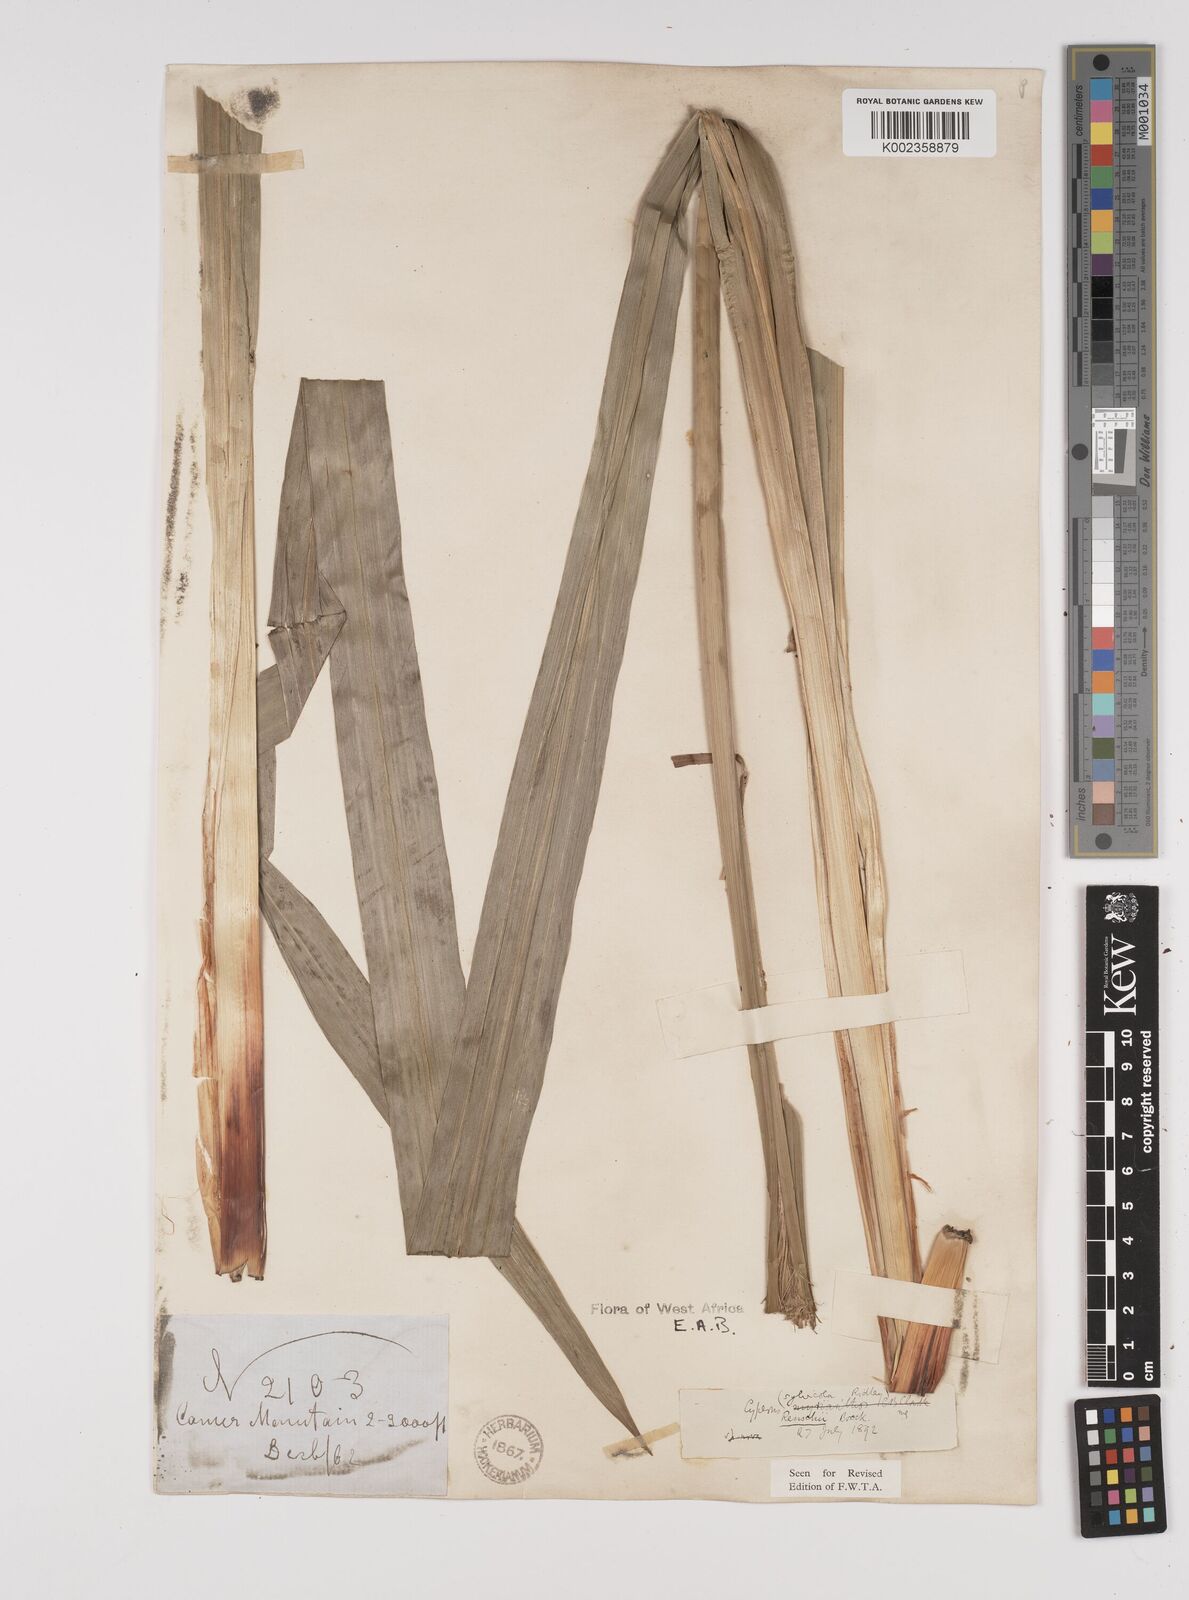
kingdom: Plantae
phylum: Tracheophyta
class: Liliopsida
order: Poales
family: Cyperaceae
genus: Cyperus
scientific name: Cyperus renschii
